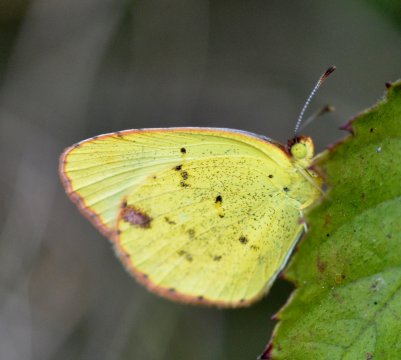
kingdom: Animalia
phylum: Arthropoda
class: Insecta
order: Lepidoptera
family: Pieridae
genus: Pyrisitia
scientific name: Pyrisitia lisa
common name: Little Yellow
